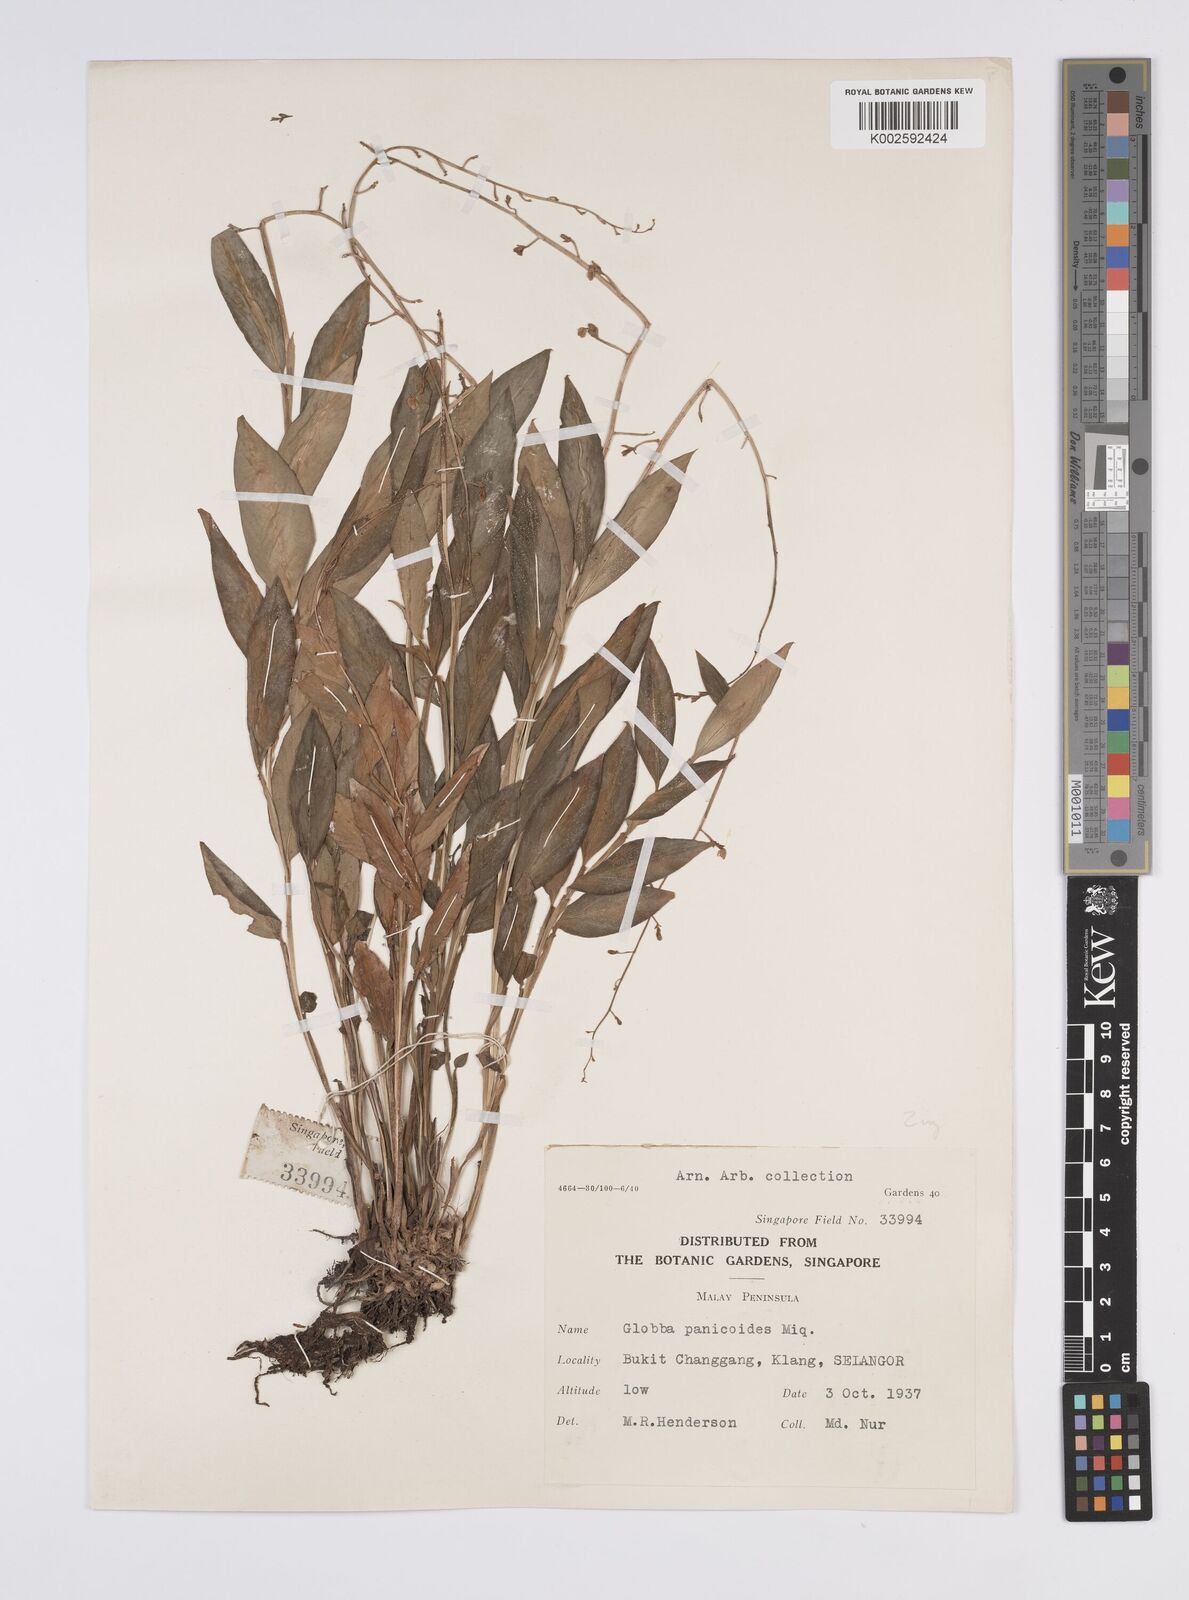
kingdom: Plantae
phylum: Tracheophyta
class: Liliopsida
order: Zingiberales
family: Zingiberaceae
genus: Globba
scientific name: Globba pendula
